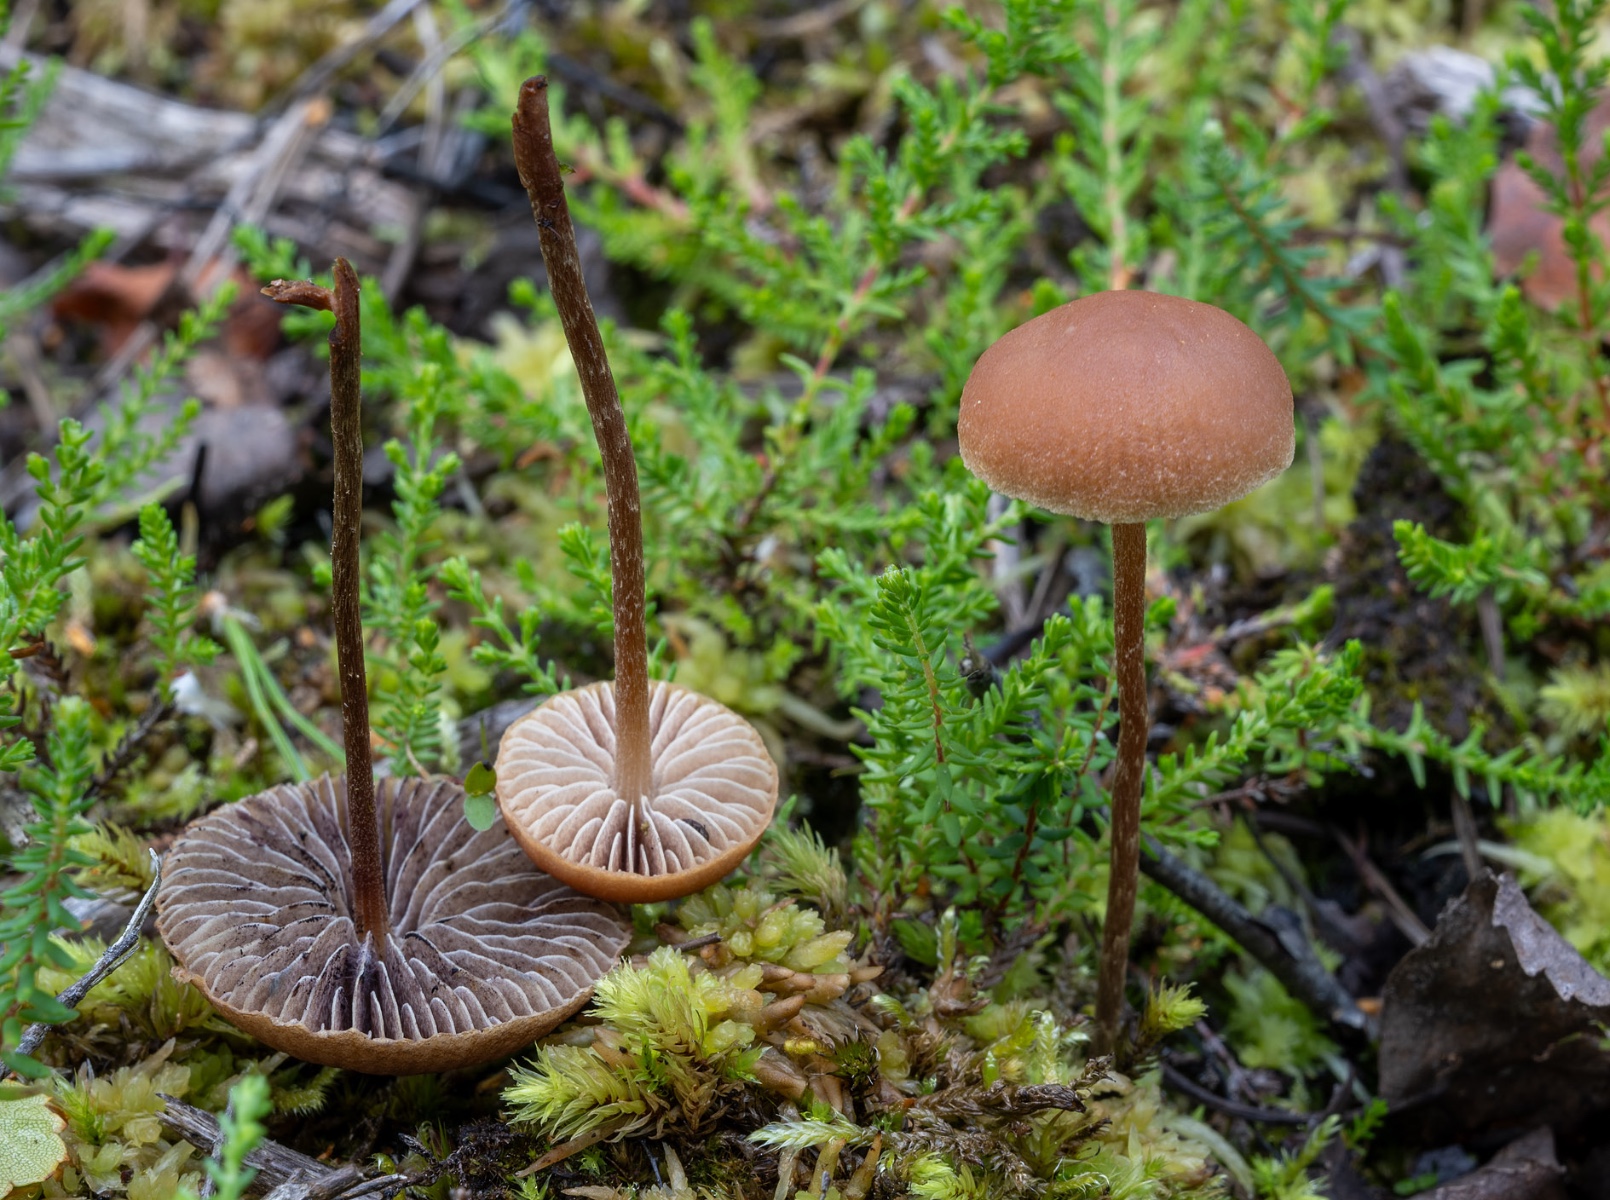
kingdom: Fungi
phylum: Basidiomycota
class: Agaricomycetes
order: Agaricales
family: Strophariaceae
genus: Bogbodia
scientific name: Bogbodia uda
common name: tørve-svovlhat
